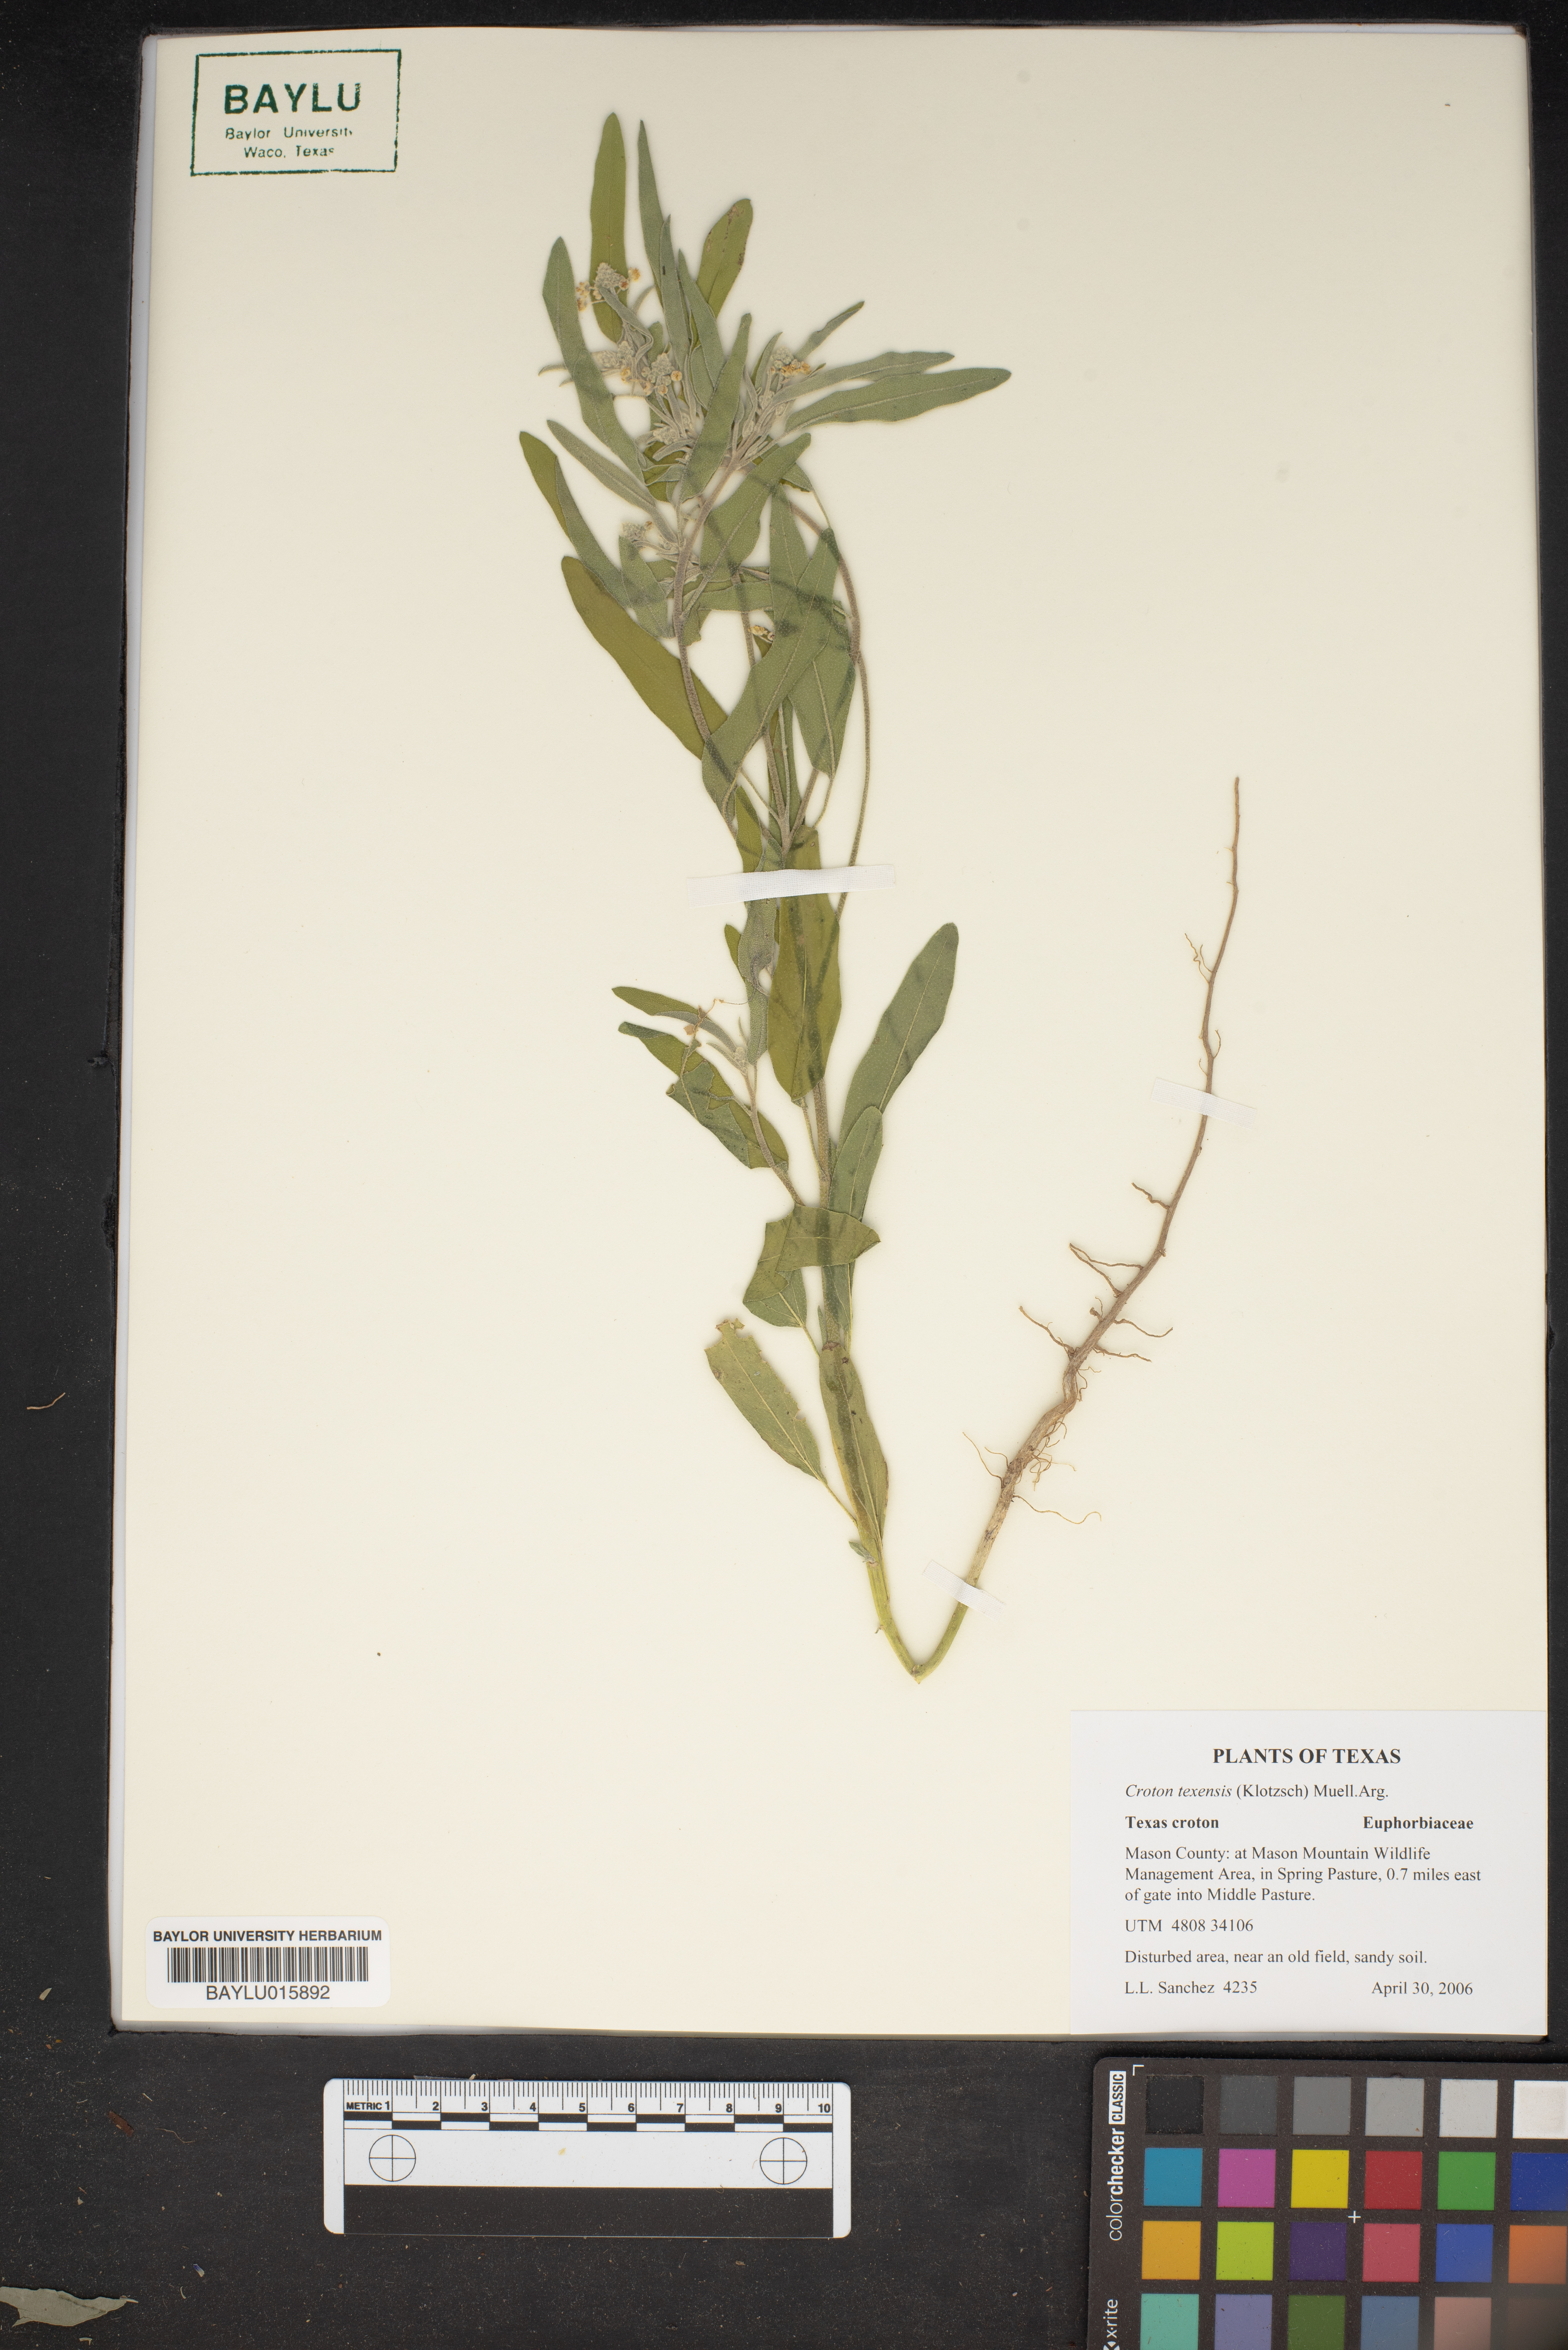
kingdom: Plantae
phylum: Tracheophyta
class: Magnoliopsida
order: Malpighiales
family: Euphorbiaceae
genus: Croton
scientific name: Croton texensis
